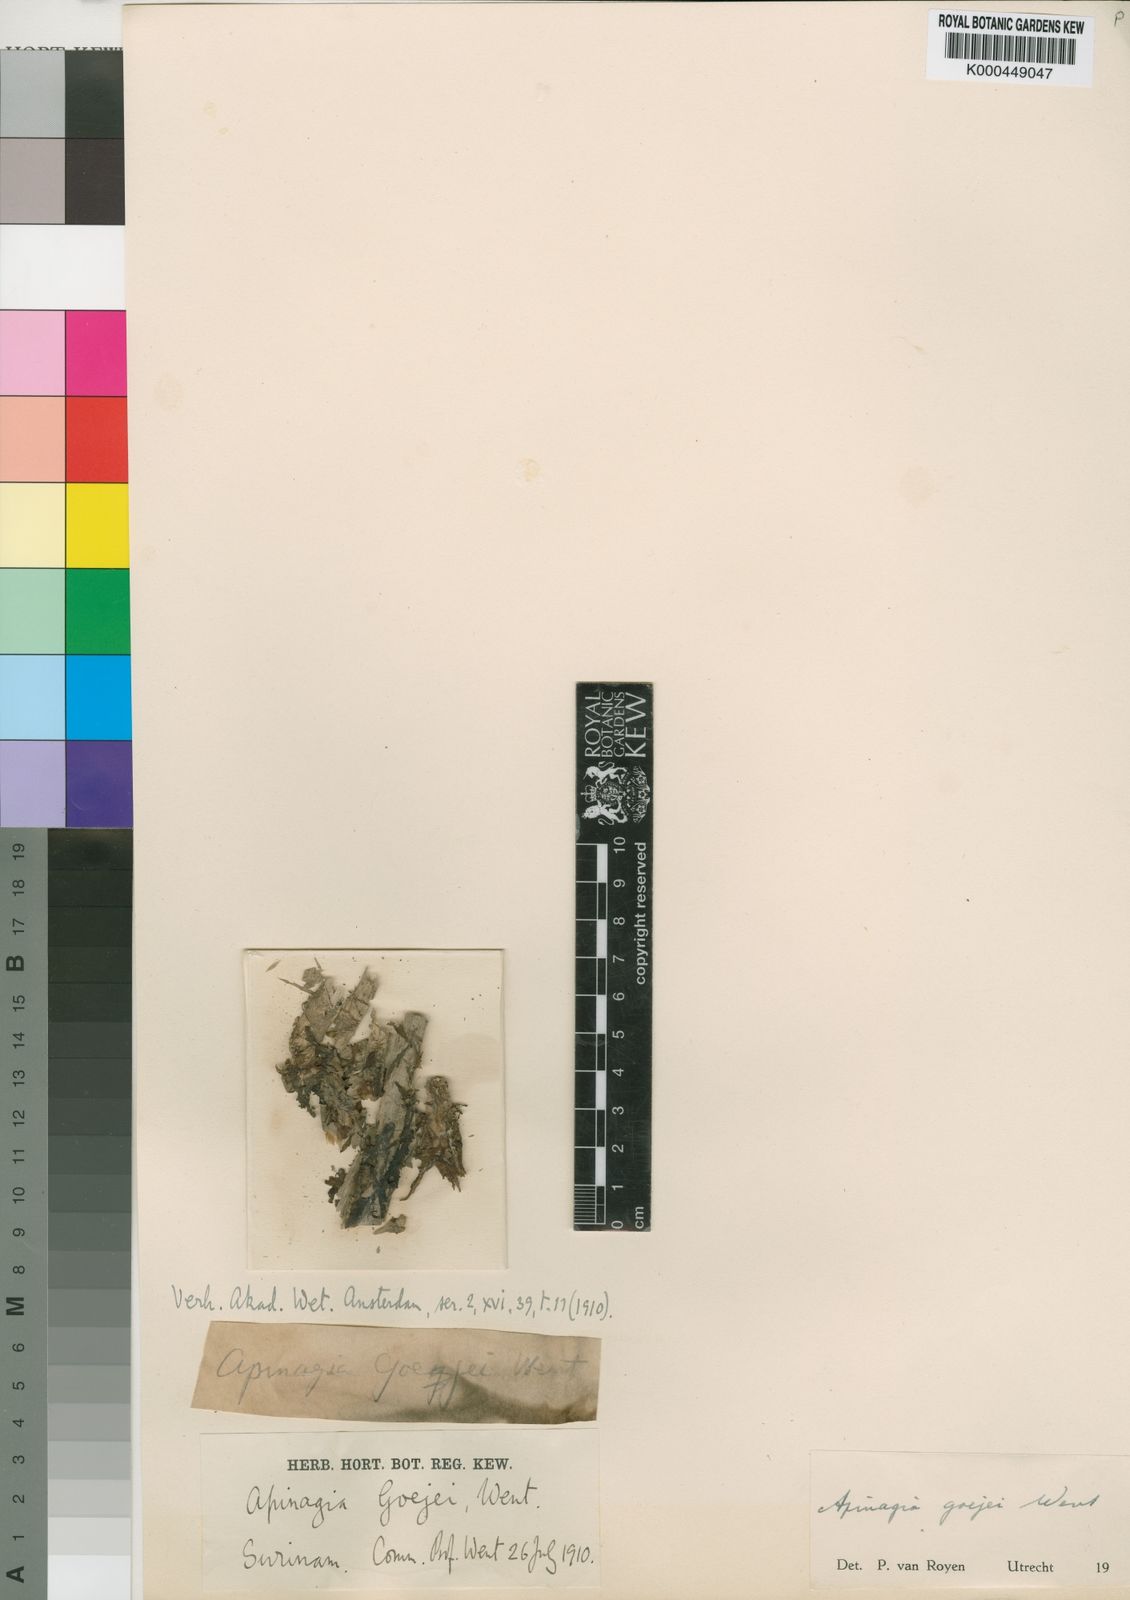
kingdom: Plantae
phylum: Tracheophyta
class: Magnoliopsida
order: Malpighiales
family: Podostemaceae
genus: Apinagia
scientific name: Apinagia
